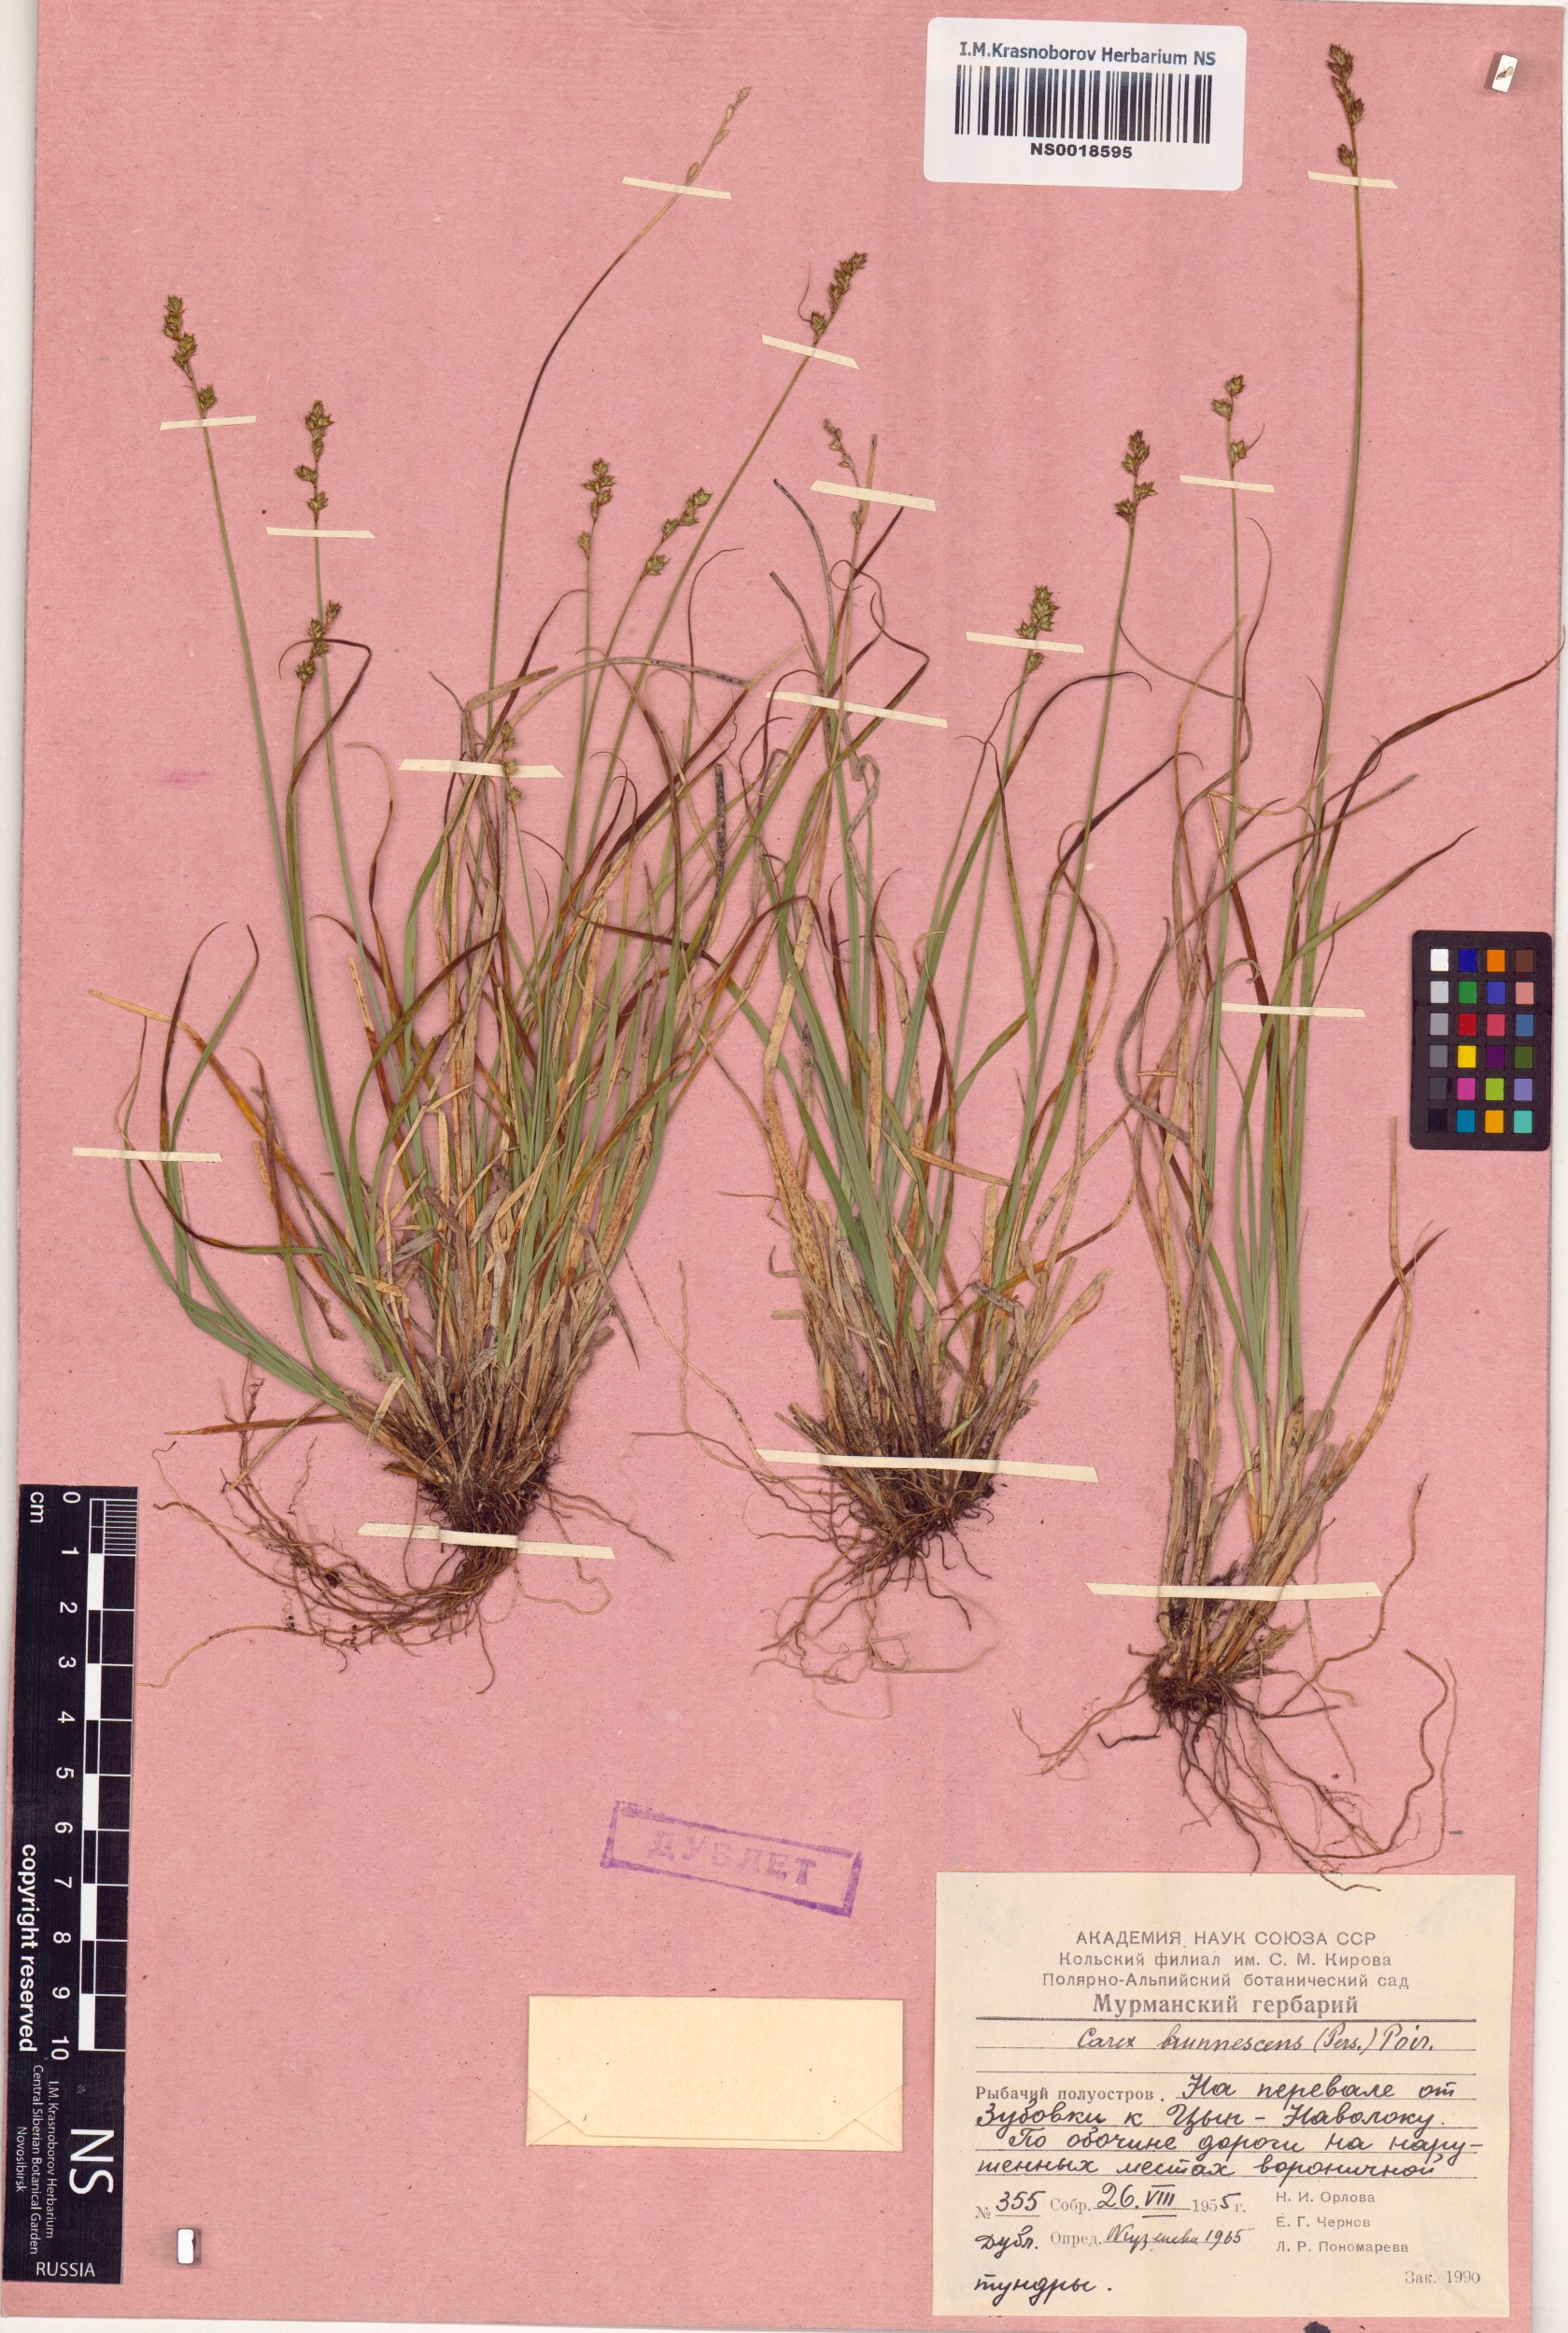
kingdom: Plantae
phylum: Tracheophyta
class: Liliopsida
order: Poales
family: Cyperaceae
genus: Carex
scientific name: Carex brunnescens
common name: Brown sedge
